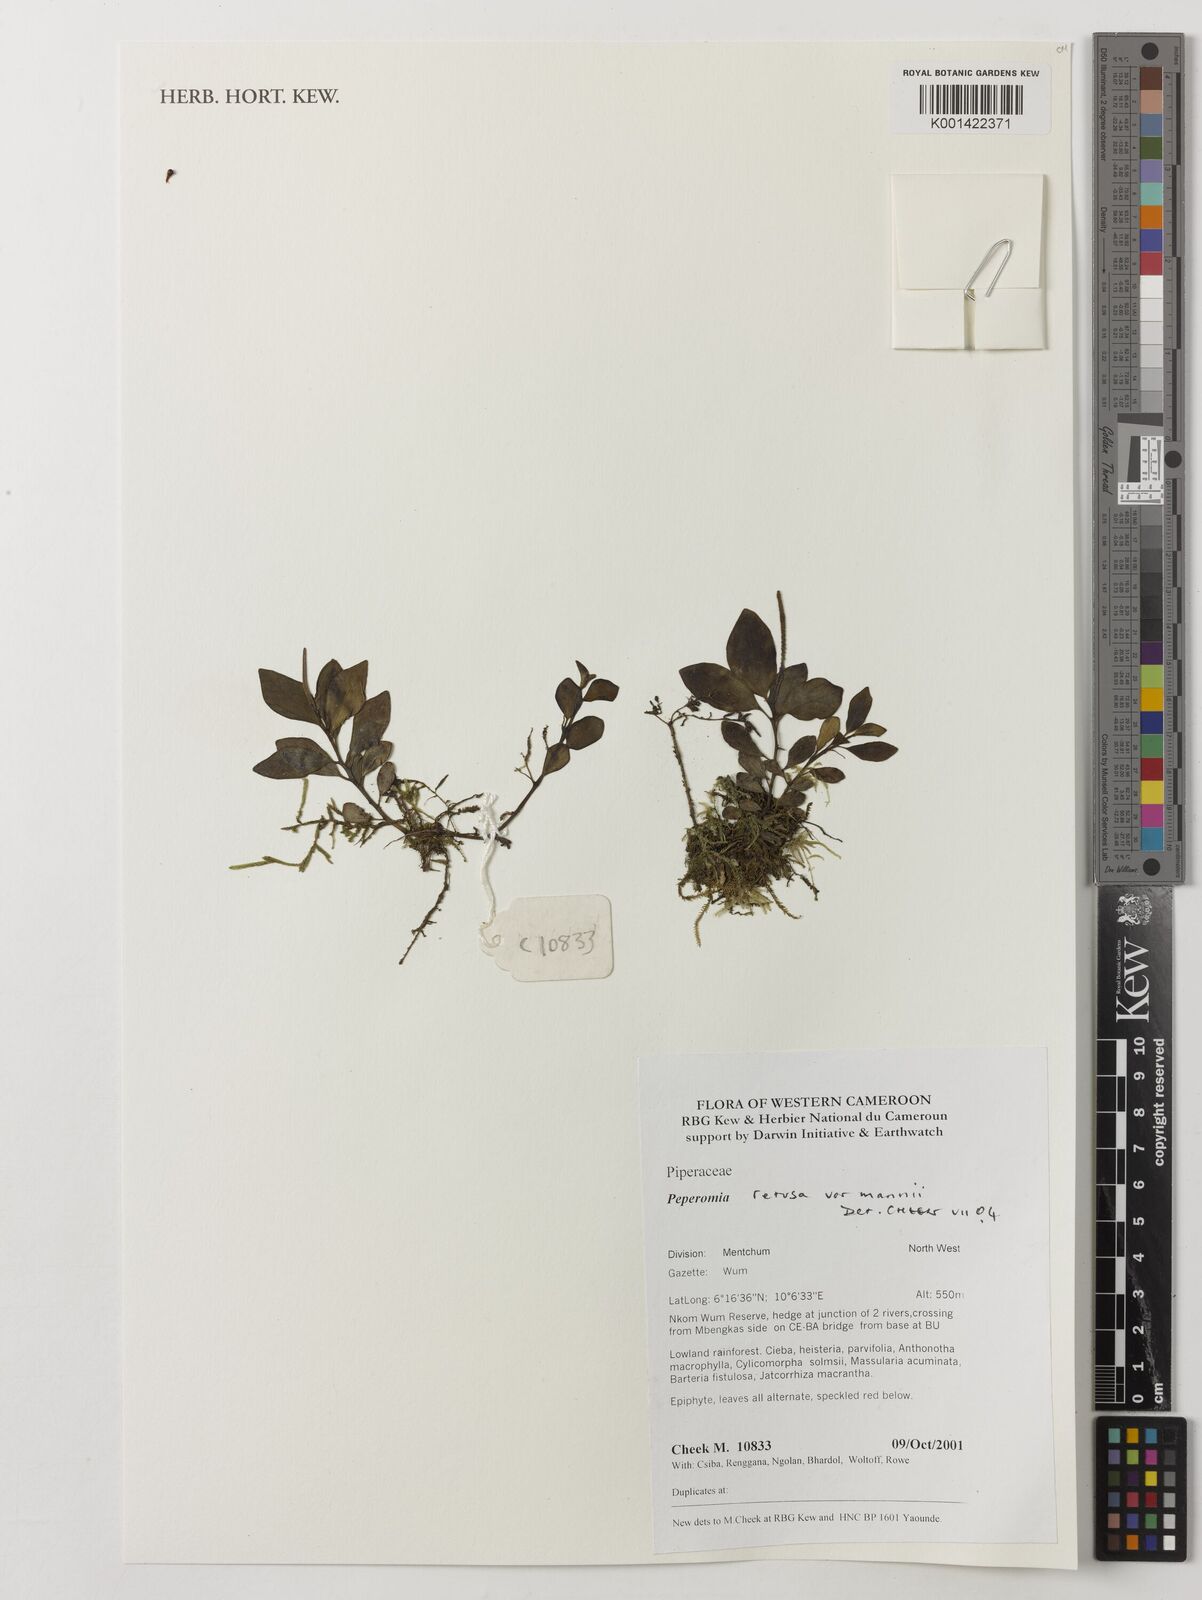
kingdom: Plantae
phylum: Tracheophyta
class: Magnoliopsida
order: Piperales
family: Piperaceae
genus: Peperomia
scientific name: Peperomia retusa
